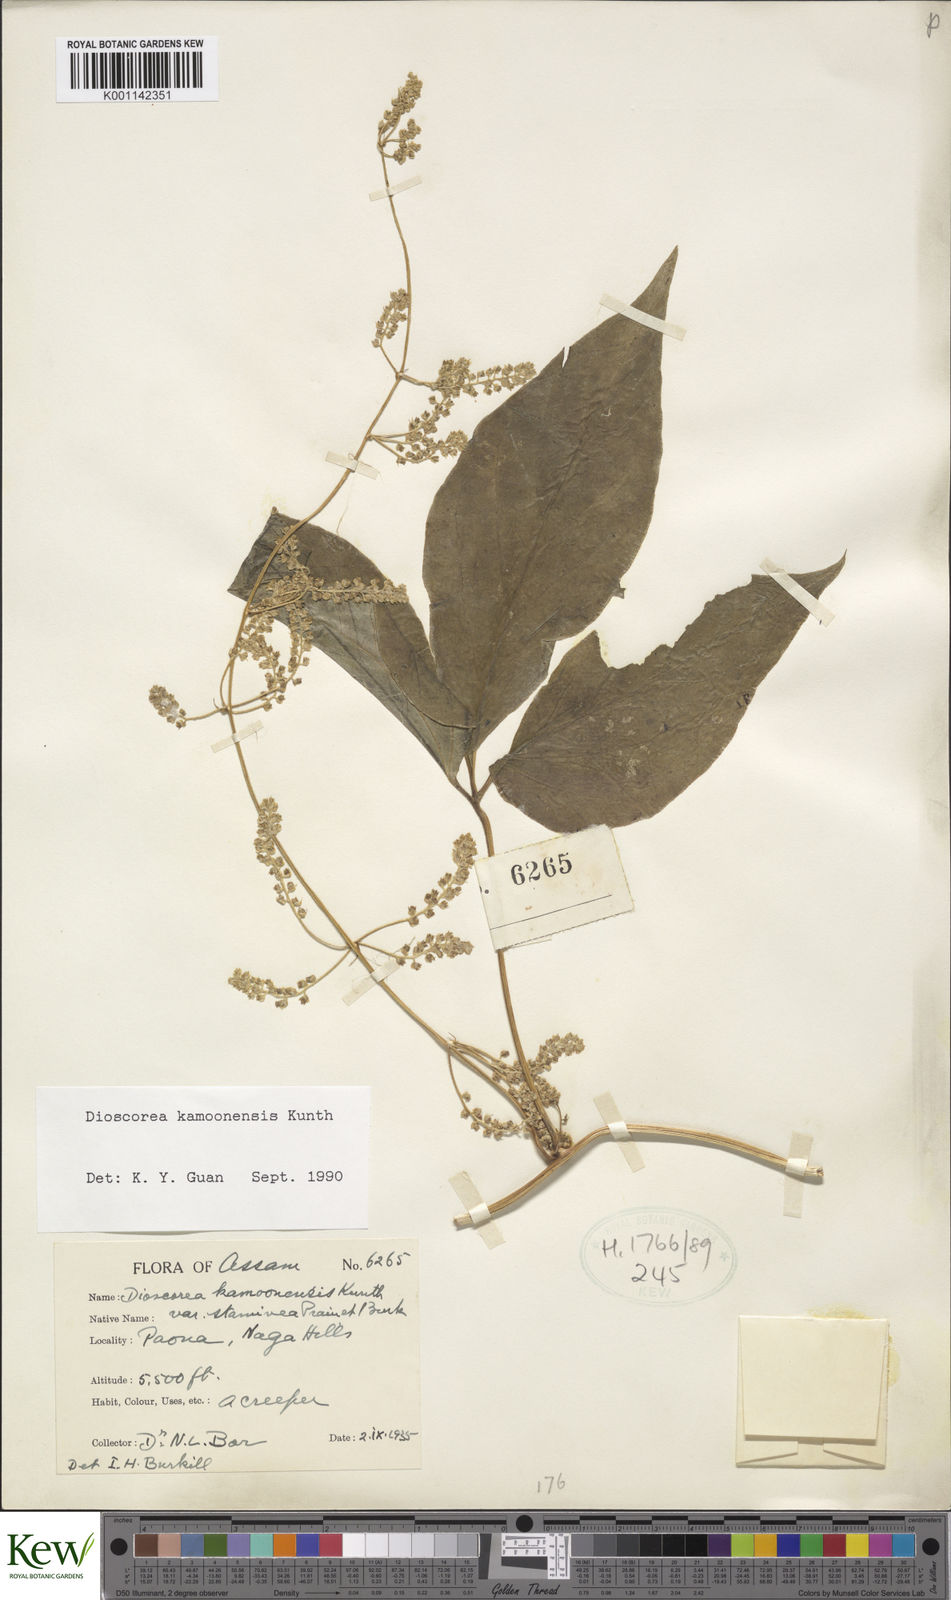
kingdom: Plantae
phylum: Tracheophyta
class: Liliopsida
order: Dioscoreales
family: Dioscoreaceae
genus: Dioscorea
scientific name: Dioscorea kamoonensis
